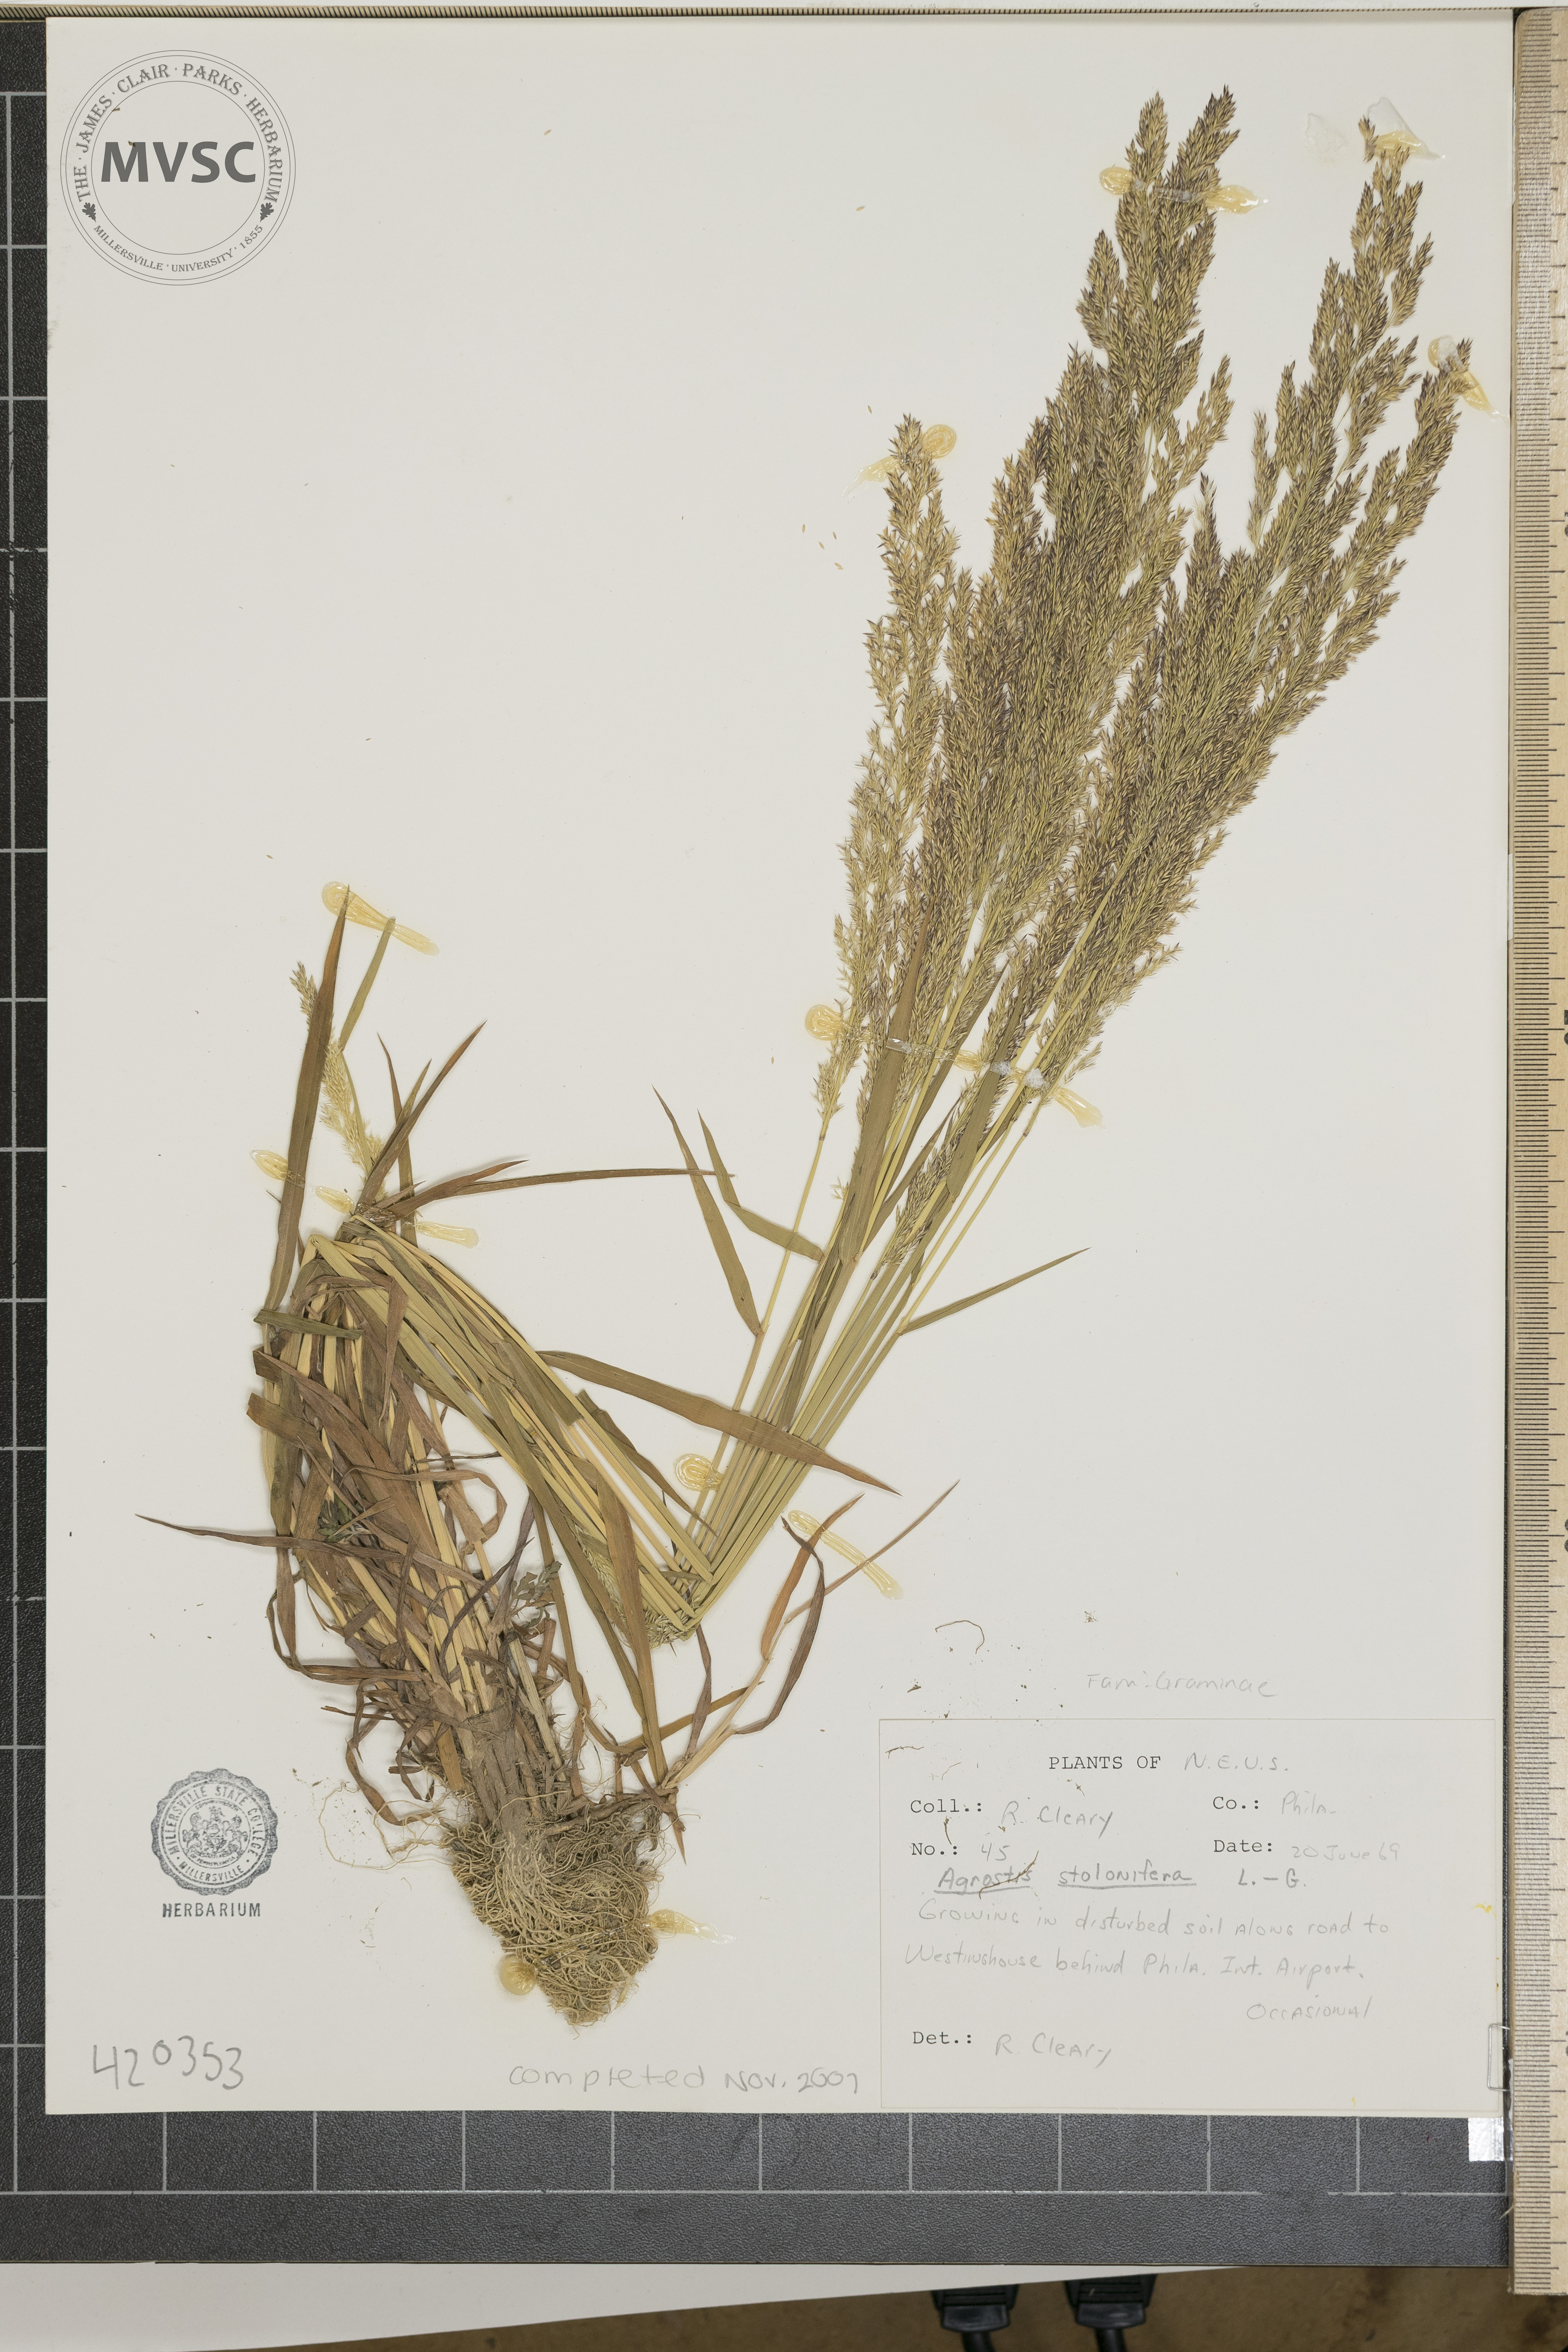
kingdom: Plantae
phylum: Tracheophyta
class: Liliopsida
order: Poales
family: Poaceae
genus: Agrostis
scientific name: Agrostis stolonifera
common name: Creeping bentgrass
